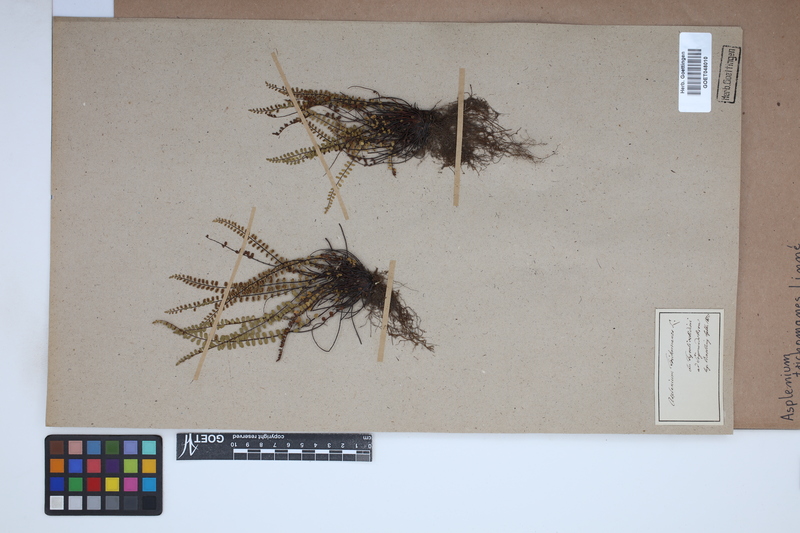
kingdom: Plantae
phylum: Tracheophyta
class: Polypodiopsida
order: Polypodiales
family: Aspleniaceae
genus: Asplenium
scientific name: Asplenium trichomanes
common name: Maidenhair spleenwort
